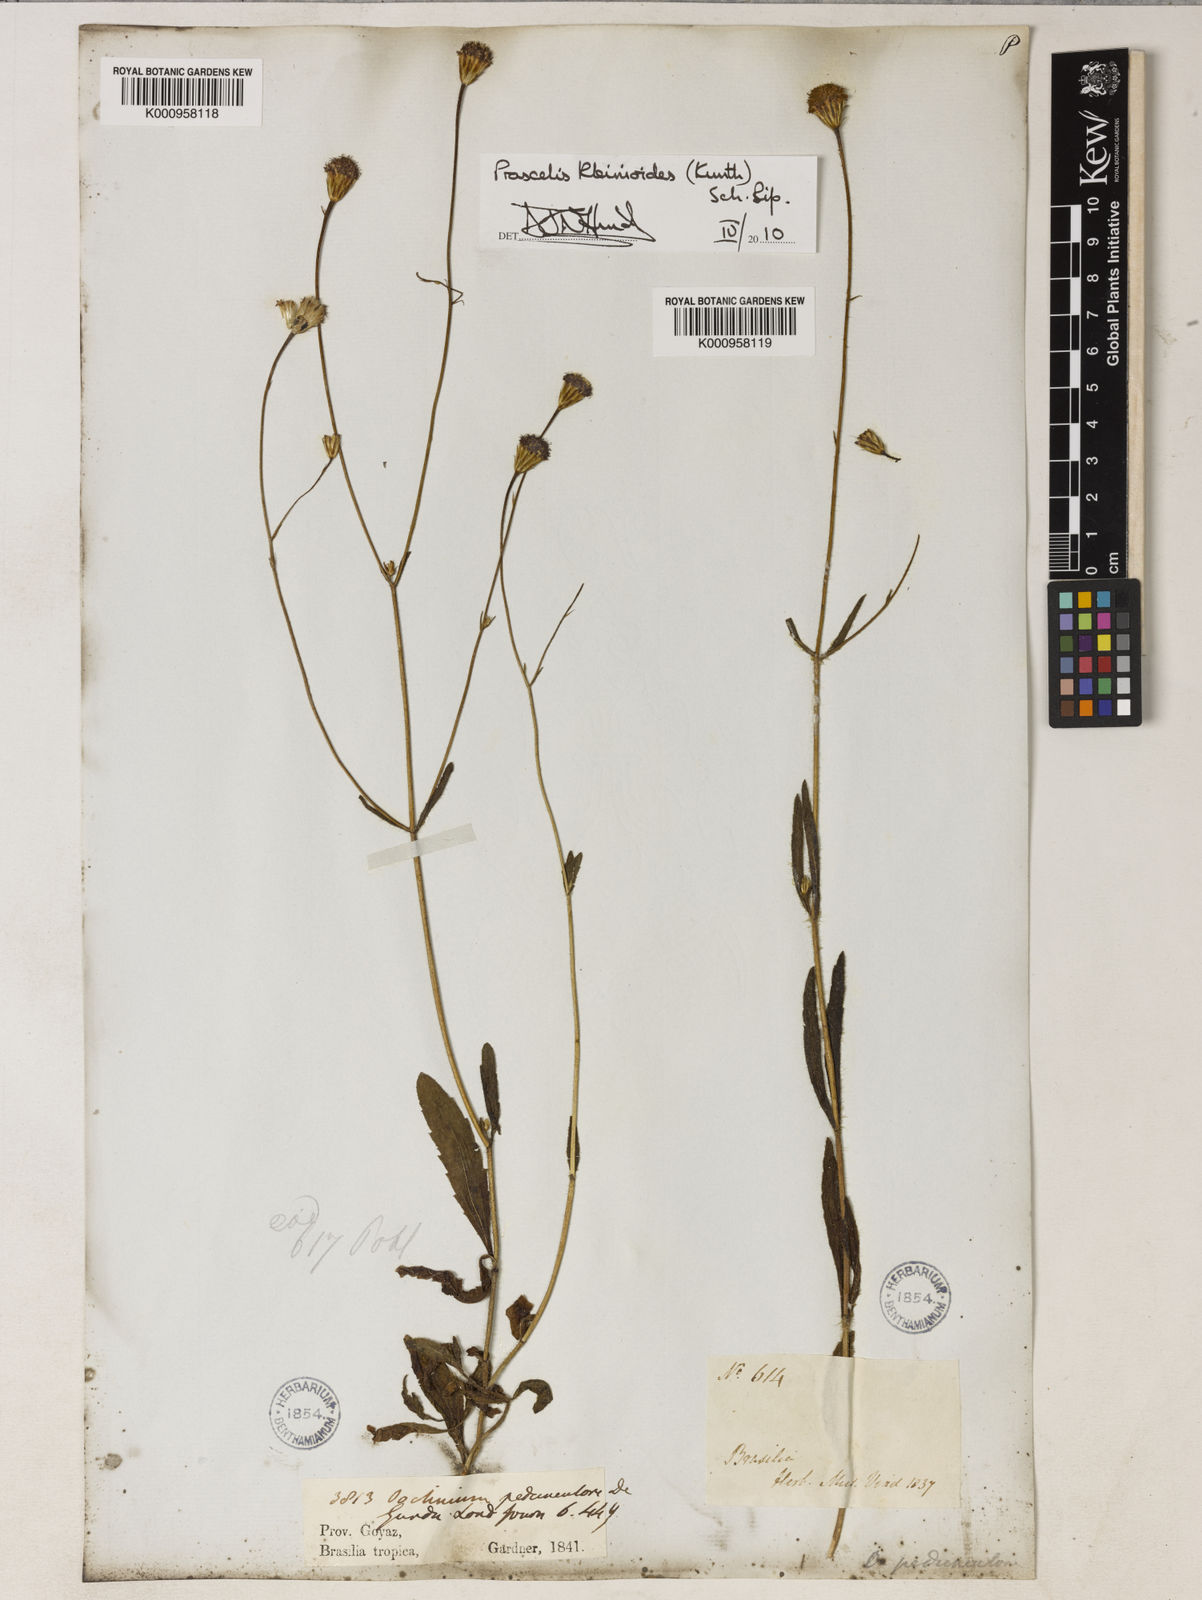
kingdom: Plantae
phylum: Tracheophyta
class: Magnoliopsida
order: Asterales
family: Asteraceae
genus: Praxelis
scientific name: Praxelis kleinioides
